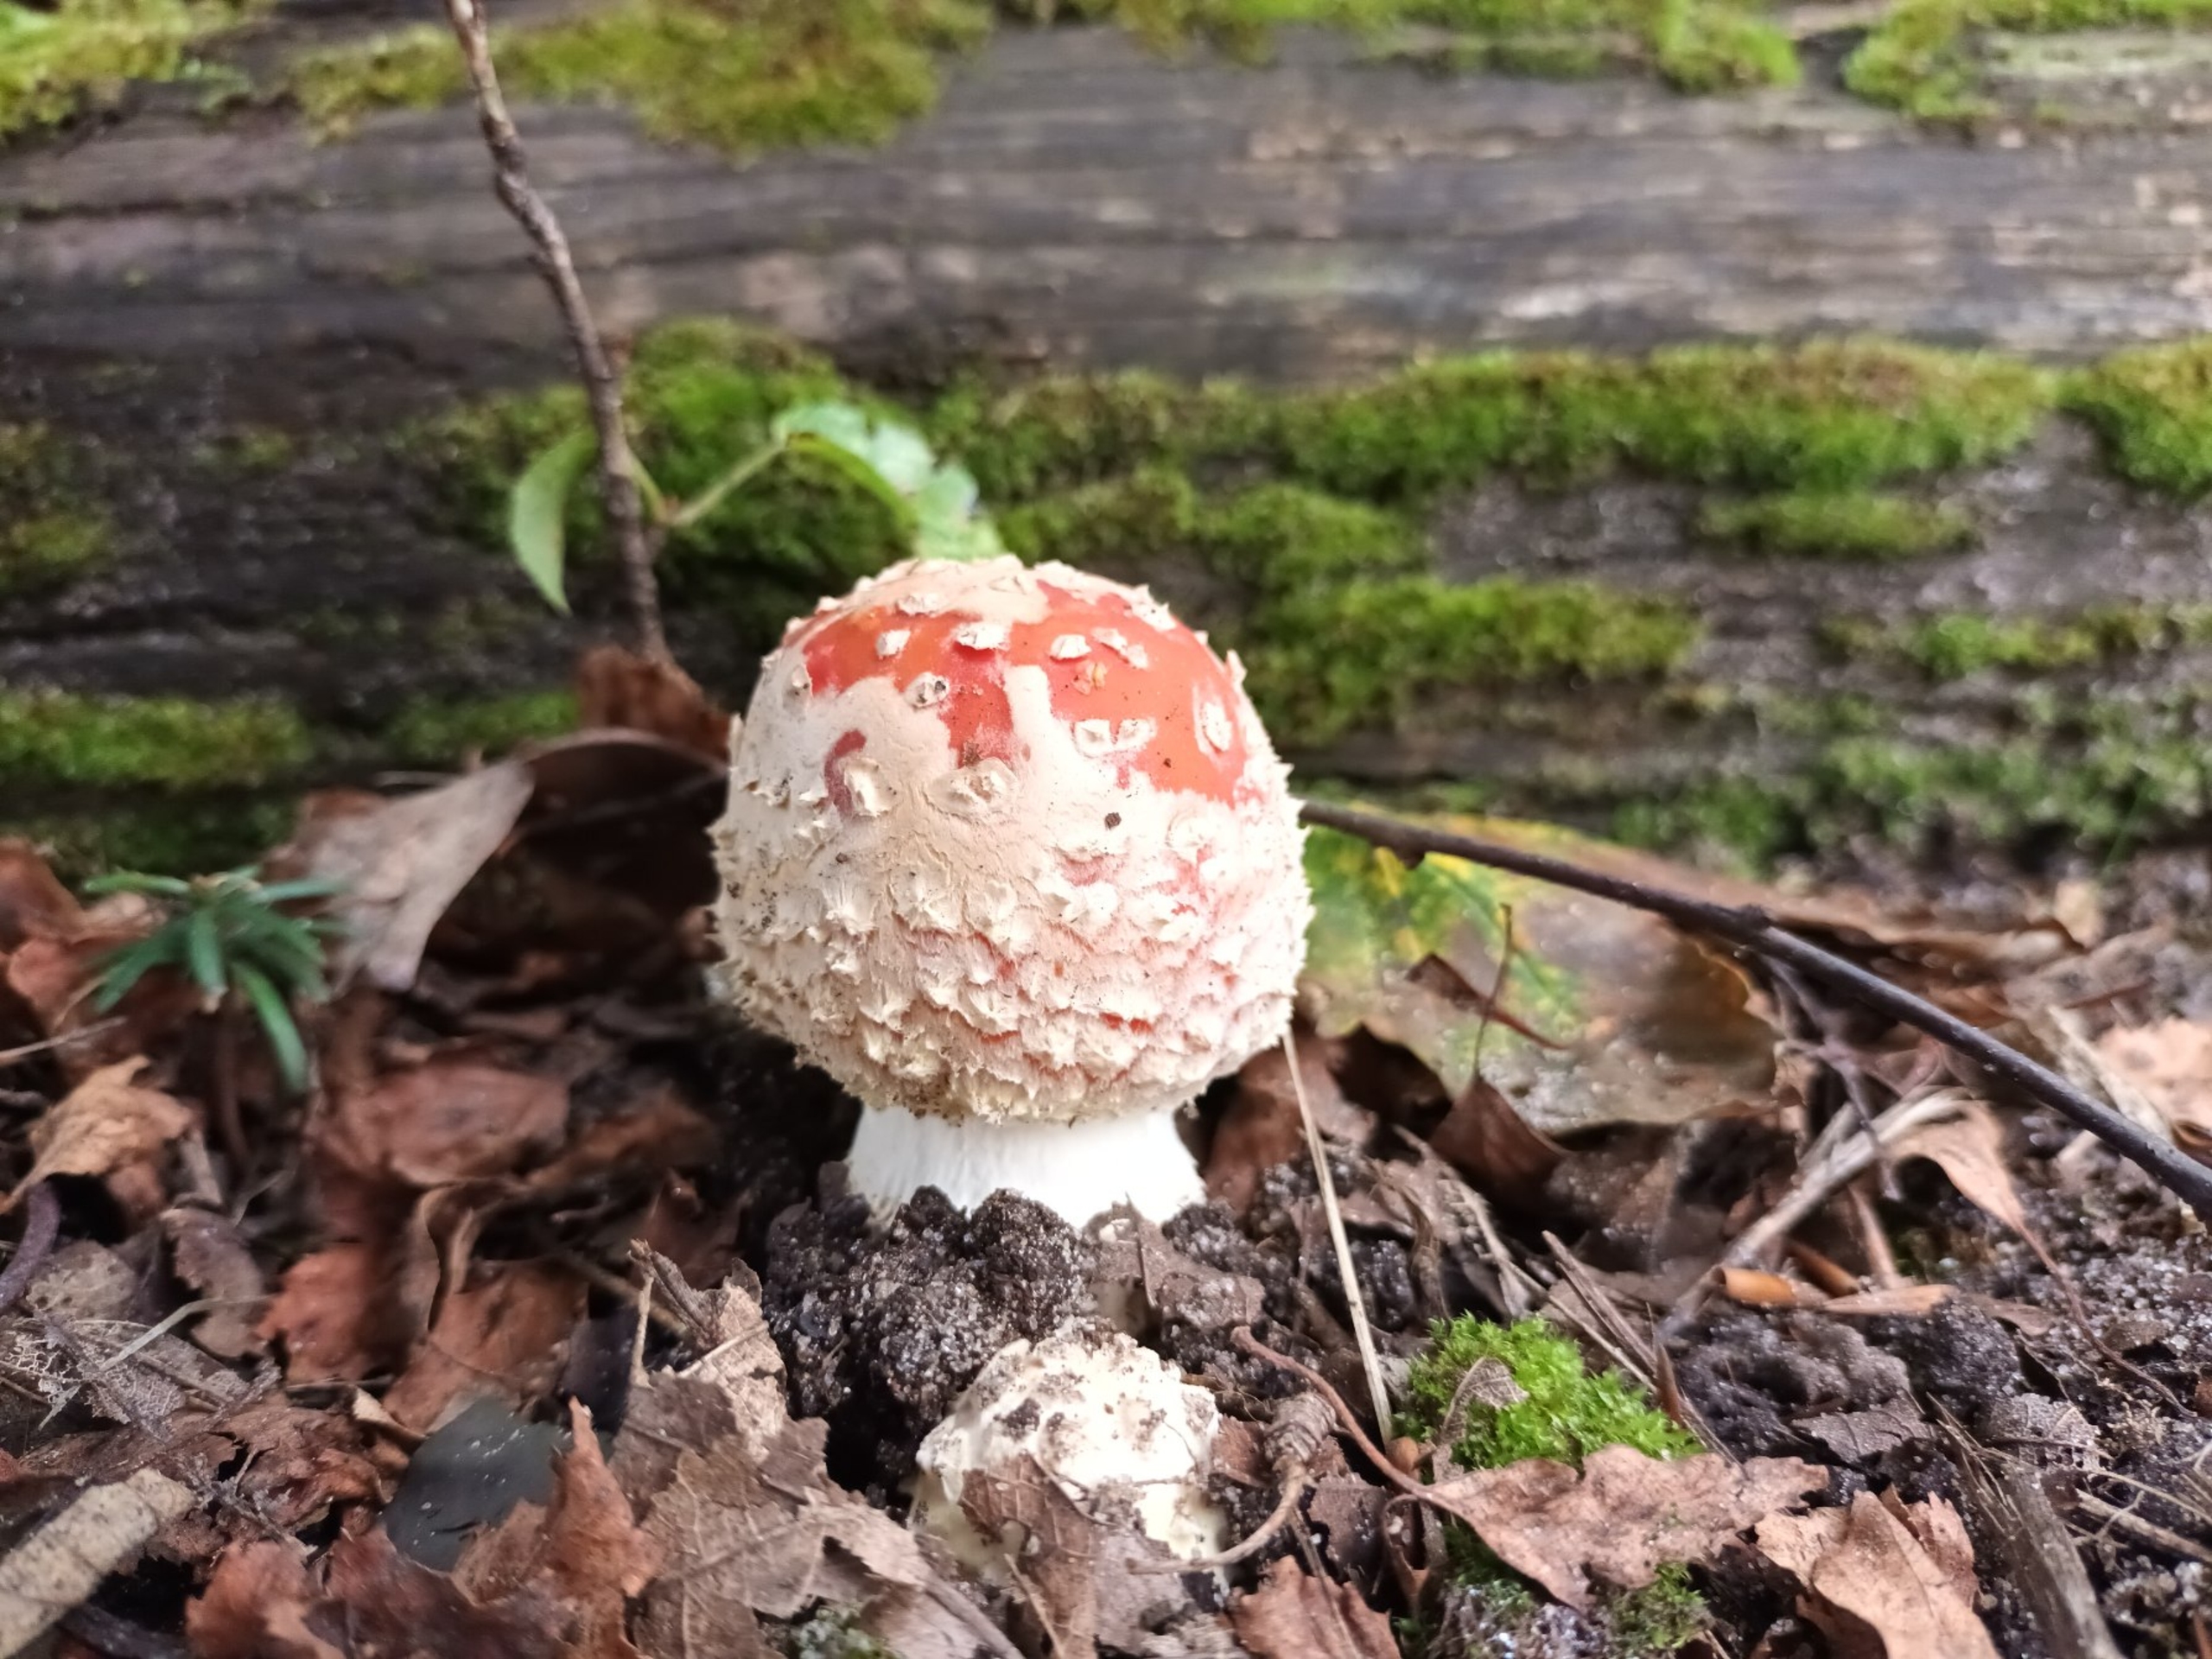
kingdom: Fungi
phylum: Basidiomycota
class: Agaricomycetes
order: Agaricales
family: Amanitaceae
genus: Amanita
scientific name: Amanita muscaria
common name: Rød fluesvamp
